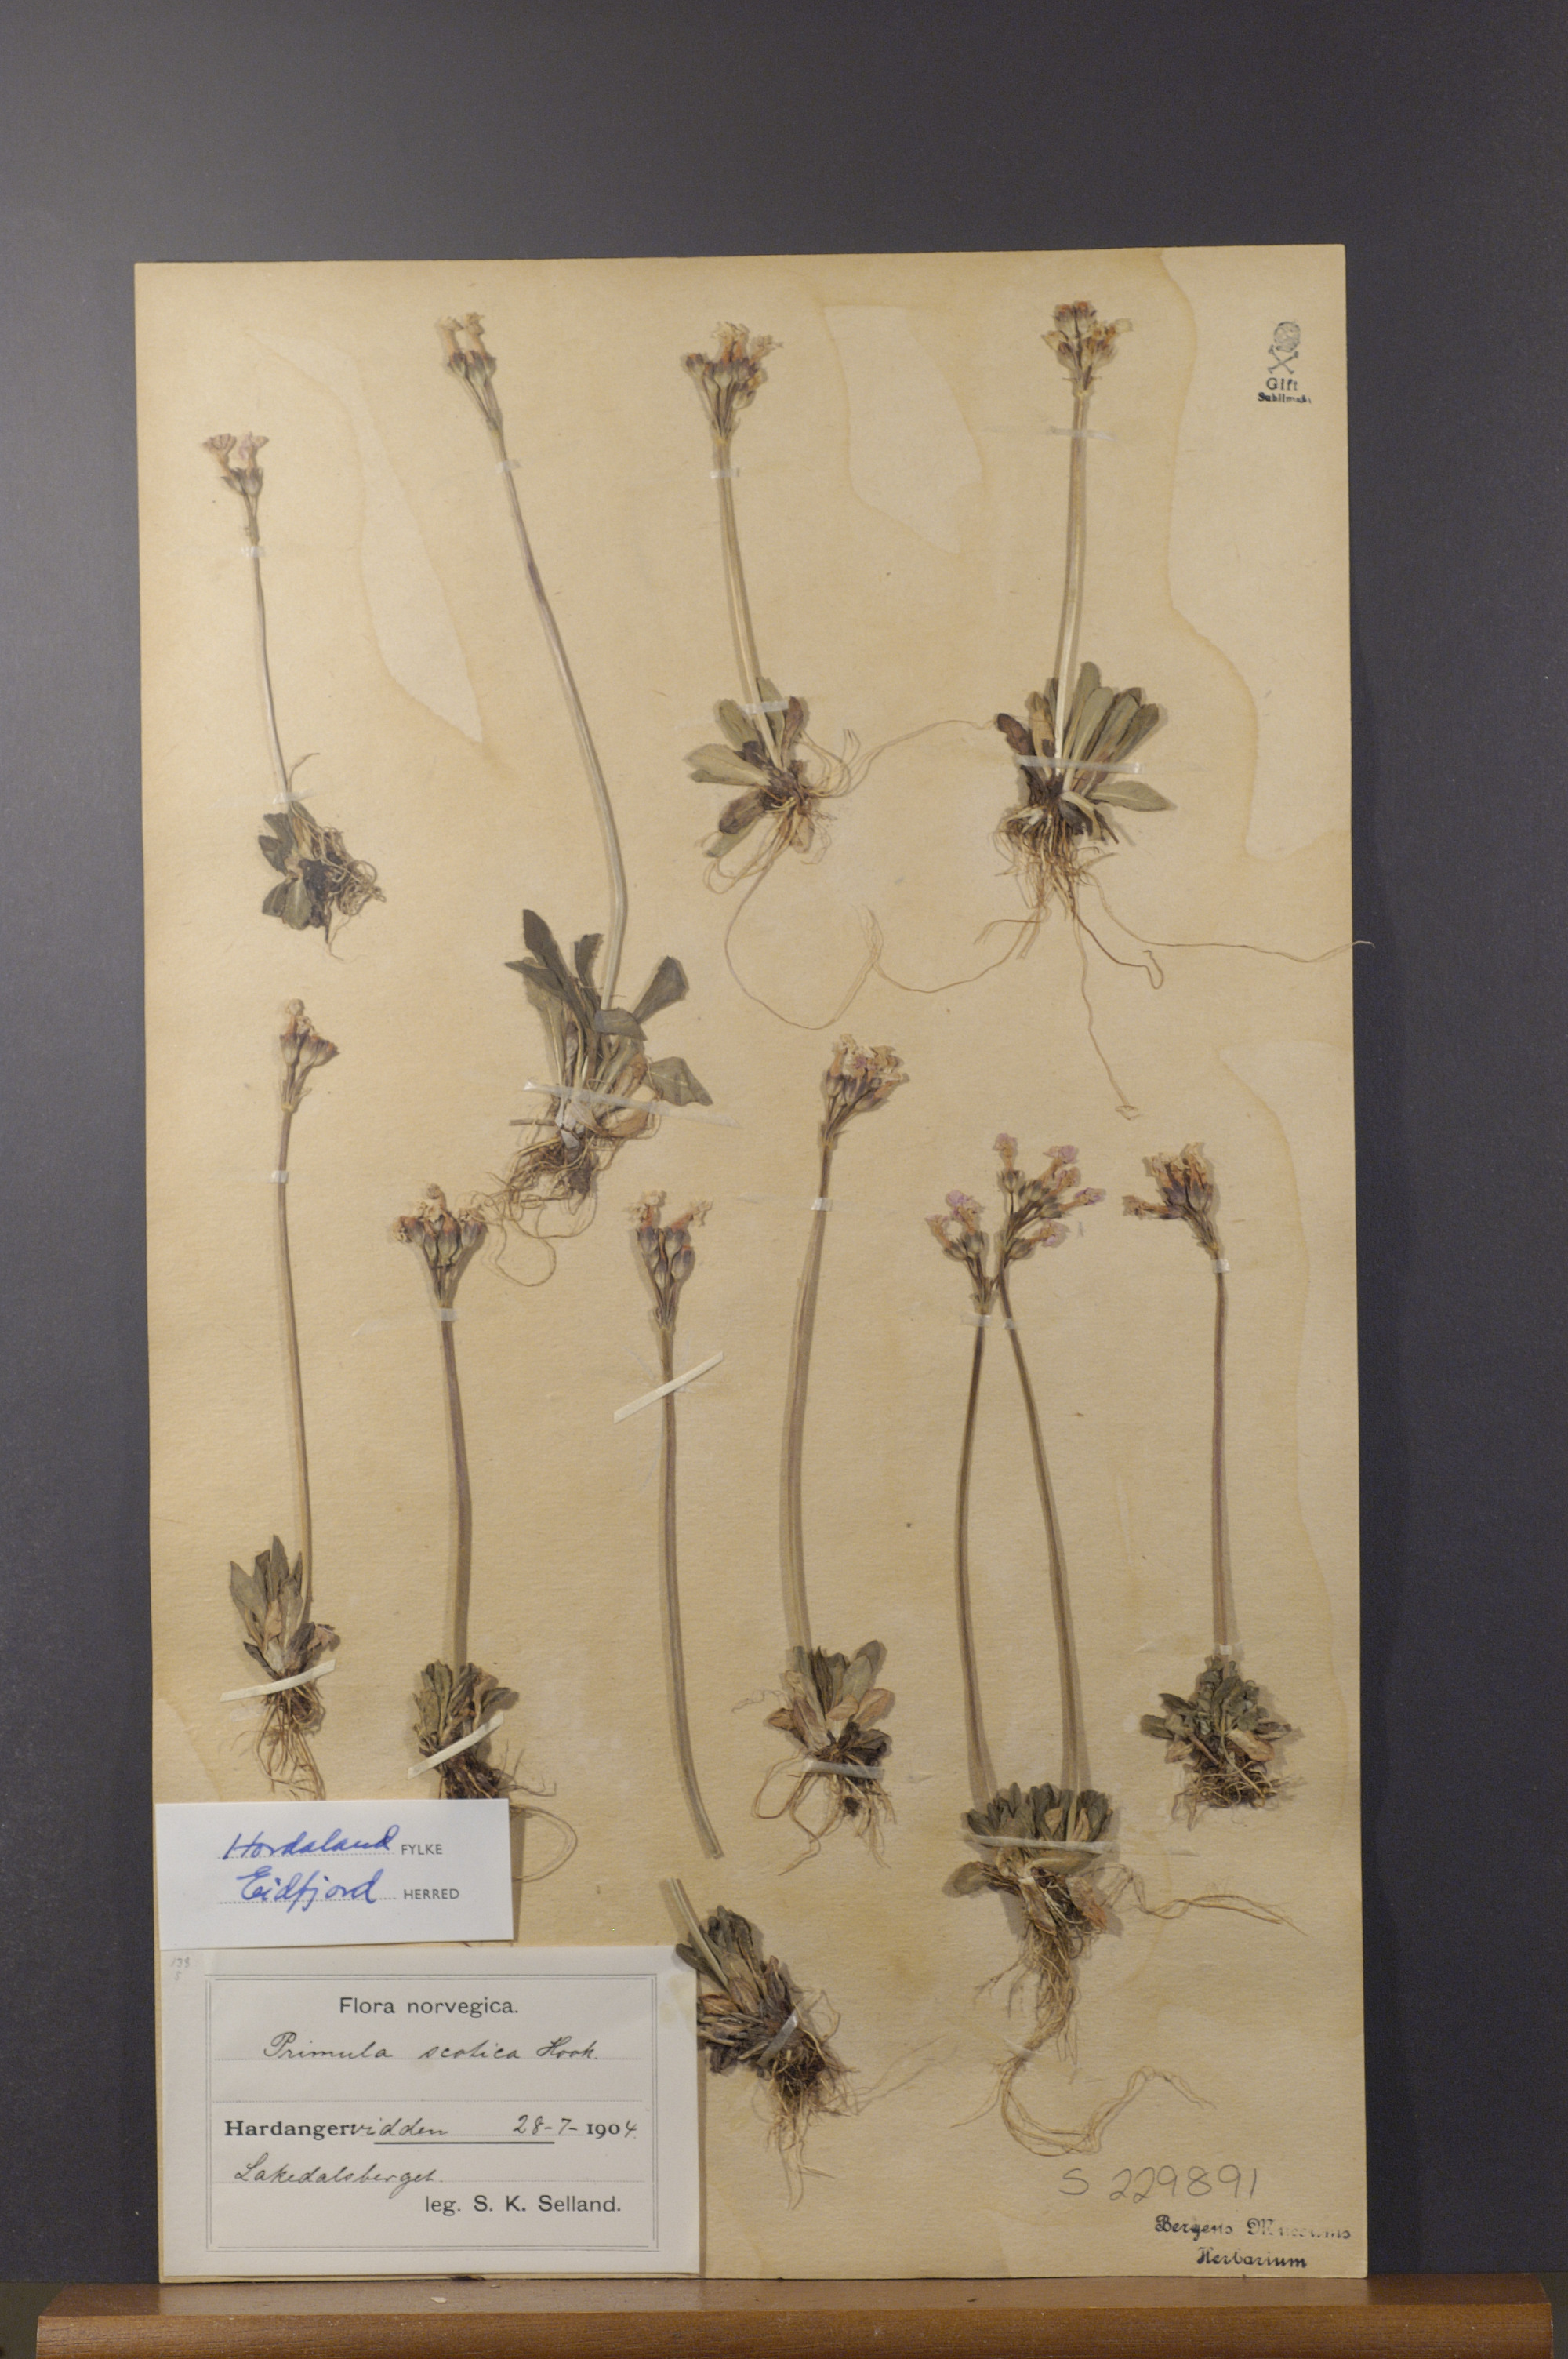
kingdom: Plantae
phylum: Tracheophyta
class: Magnoliopsida
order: Ericales
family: Primulaceae
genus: Primula
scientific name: Primula scotica
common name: Scottish primrose
